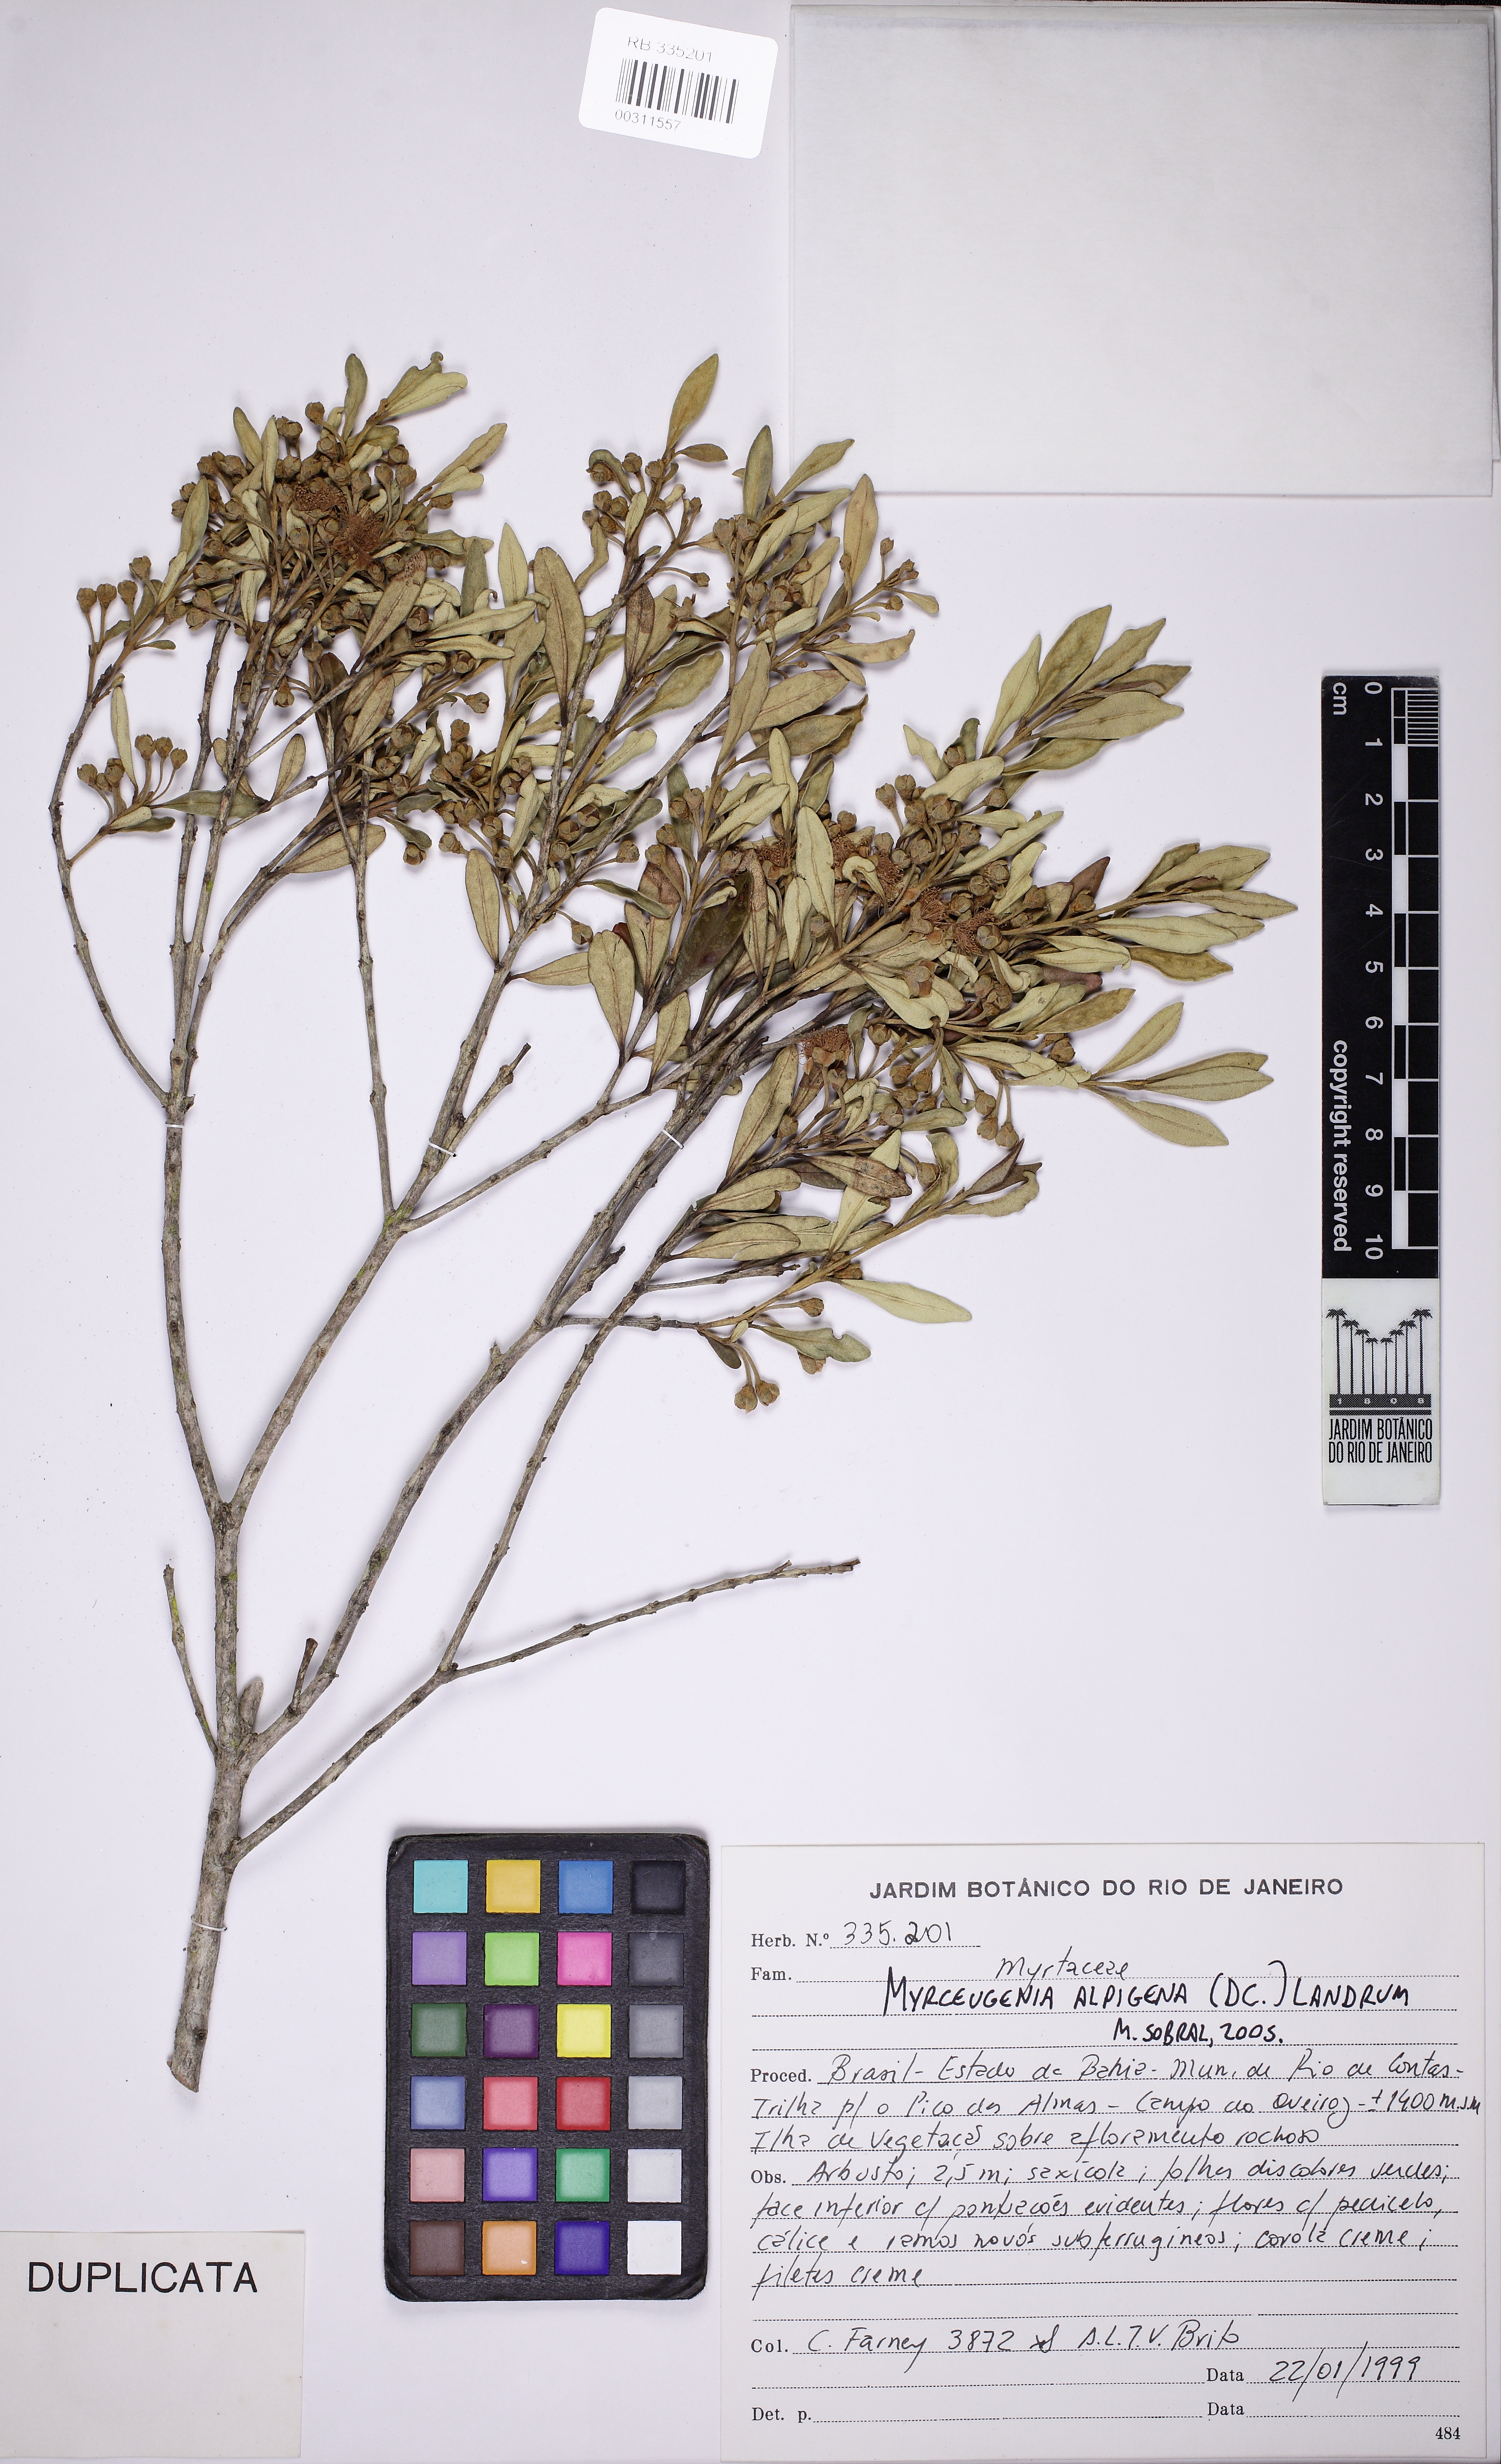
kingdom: Plantae
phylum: Tracheophyta
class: Magnoliopsida
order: Myrtales
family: Myrtaceae
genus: Myrceugenia
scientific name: Myrceugenia alpigena
